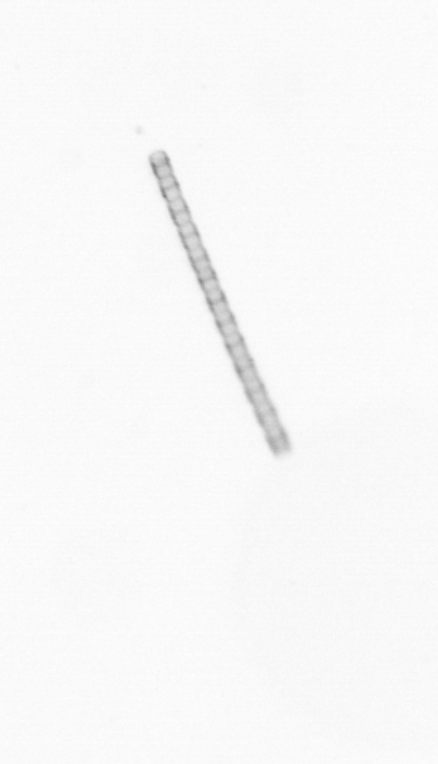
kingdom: Chromista
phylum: Ochrophyta
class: Bacillariophyceae
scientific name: Bacillariophyceae
